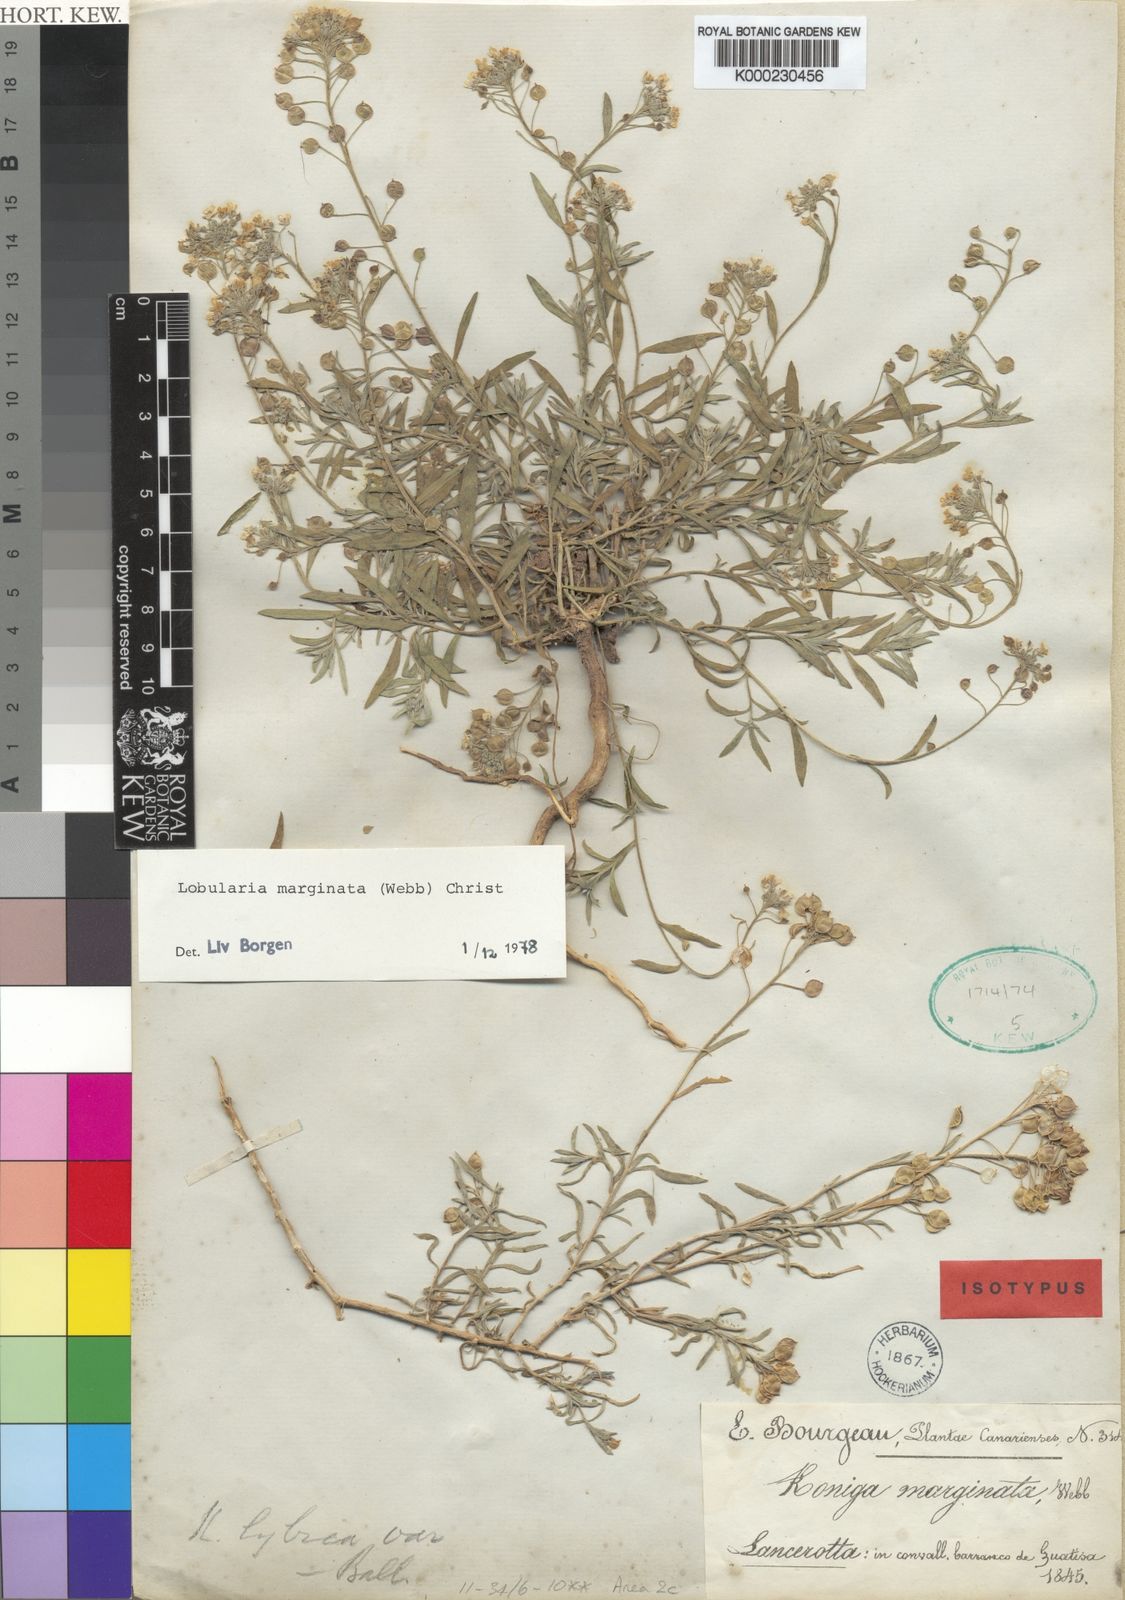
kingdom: Plantae
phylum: Tracheophyta
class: Magnoliopsida
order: Brassicales
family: Brassicaceae
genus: Lobularia
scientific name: Lobularia canariensis
